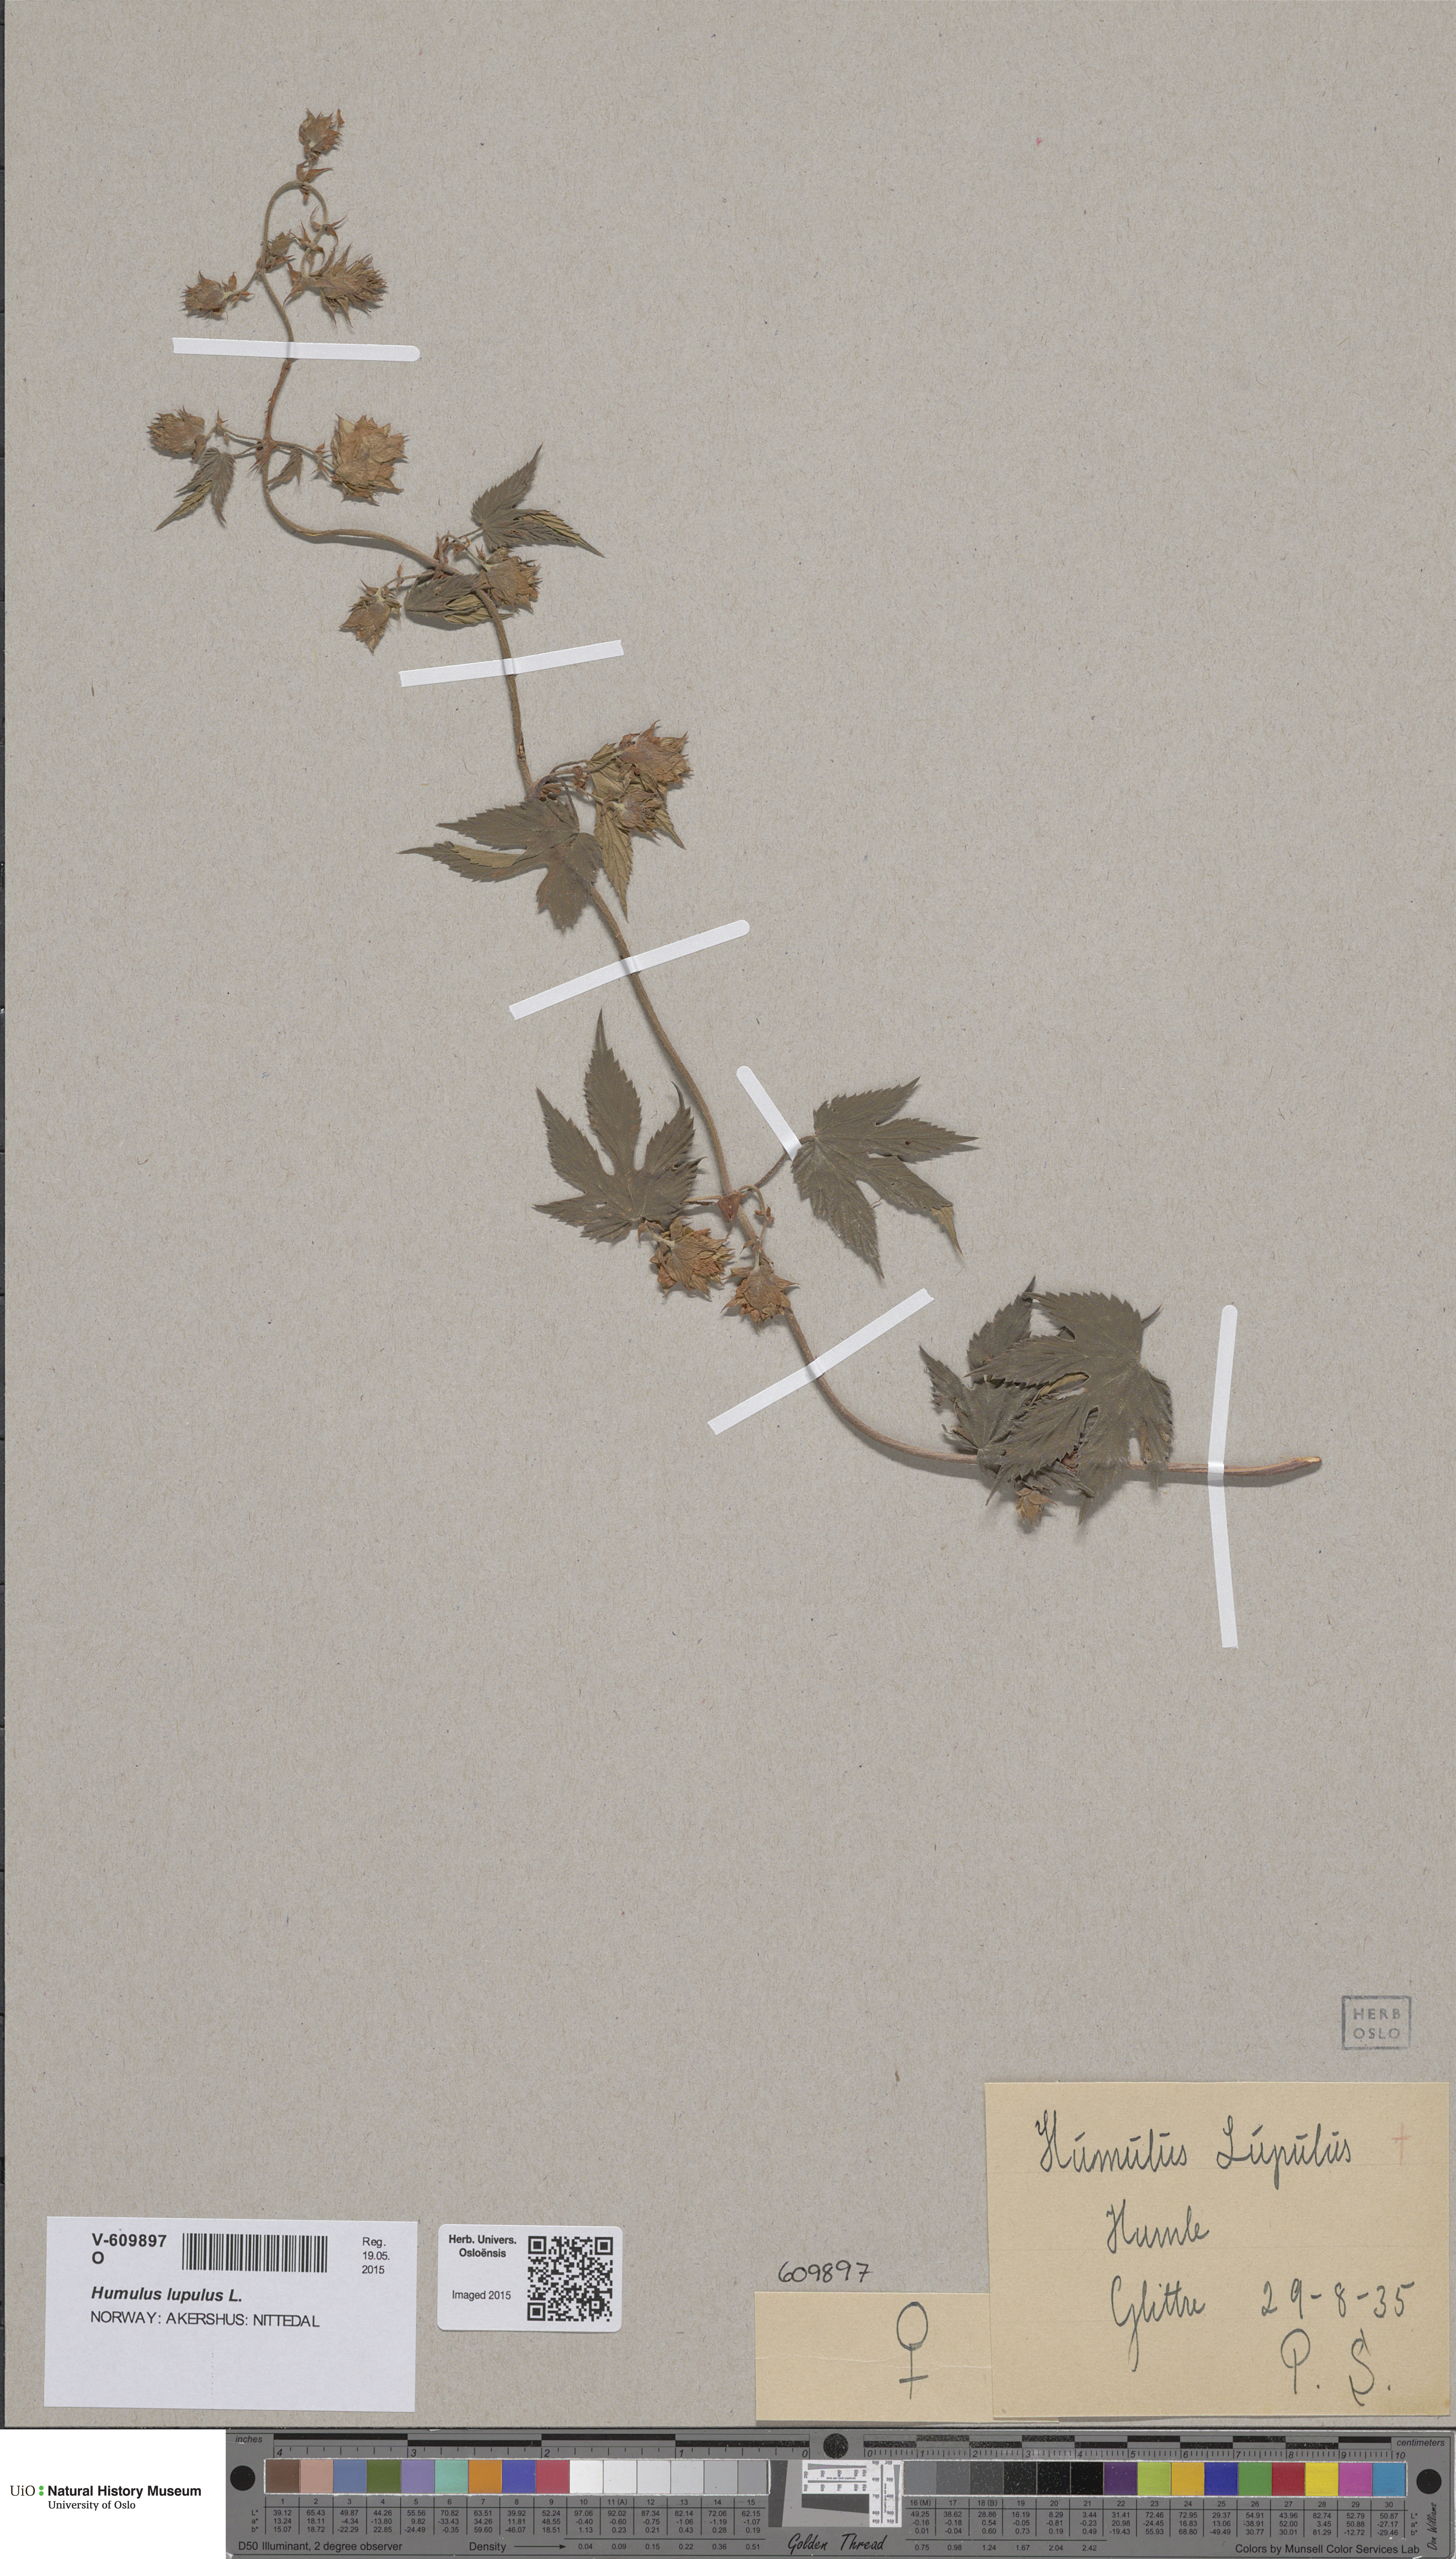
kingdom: Plantae
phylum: Tracheophyta
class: Magnoliopsida
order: Rosales
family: Cannabaceae
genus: Humulus
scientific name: Humulus lupulus
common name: Hop
